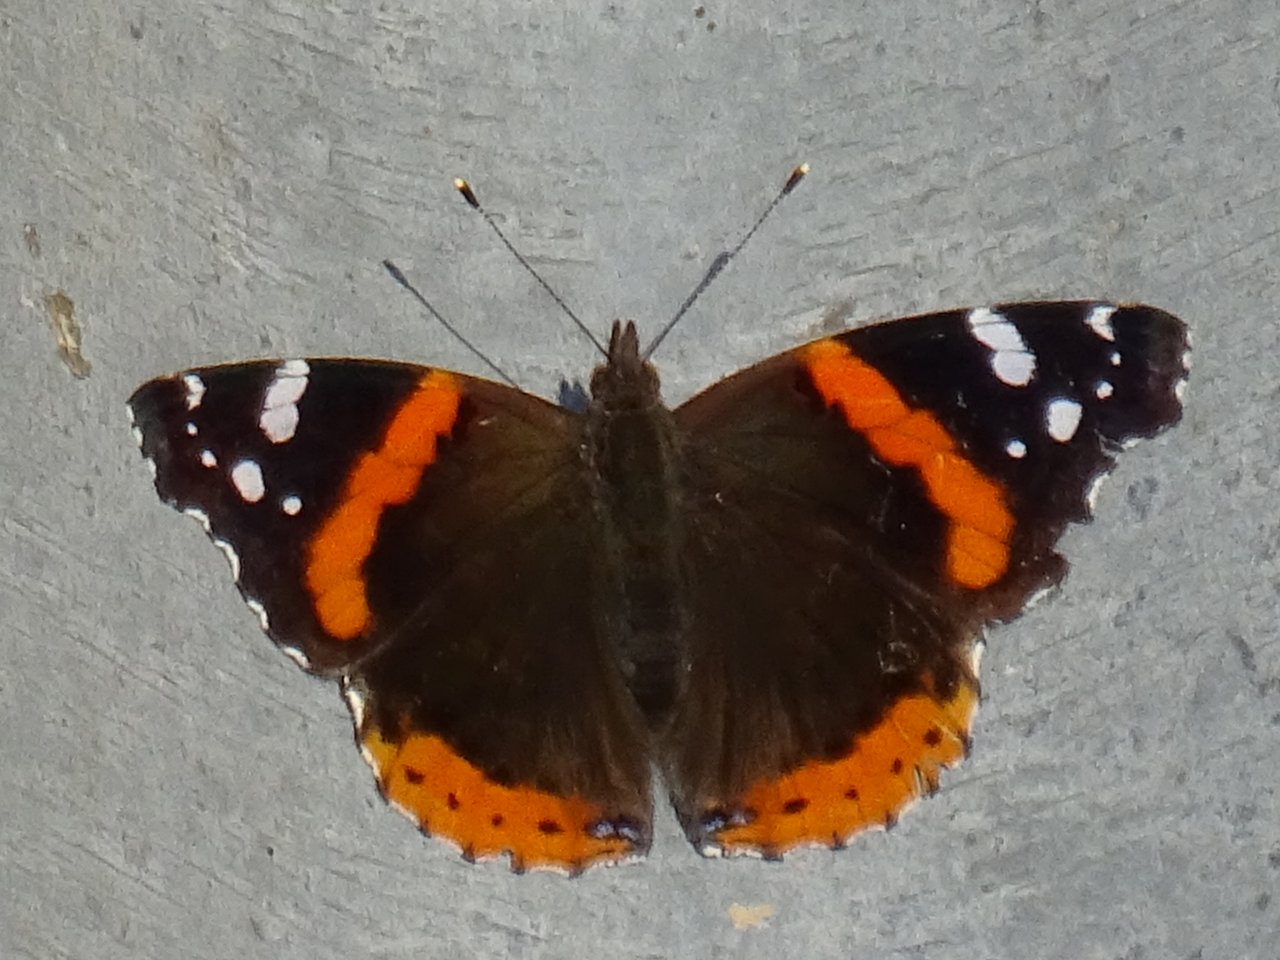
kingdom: Animalia
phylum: Arthropoda
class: Insecta
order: Lepidoptera
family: Nymphalidae
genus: Vanessa
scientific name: Vanessa atalanta
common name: Red Admiral
